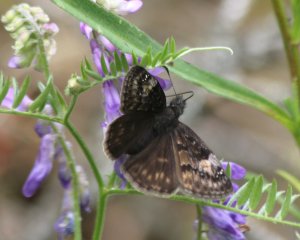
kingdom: Animalia
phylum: Arthropoda
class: Insecta
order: Lepidoptera
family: Hesperiidae
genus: Gesta
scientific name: Gesta
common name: Columbine Duskywing
